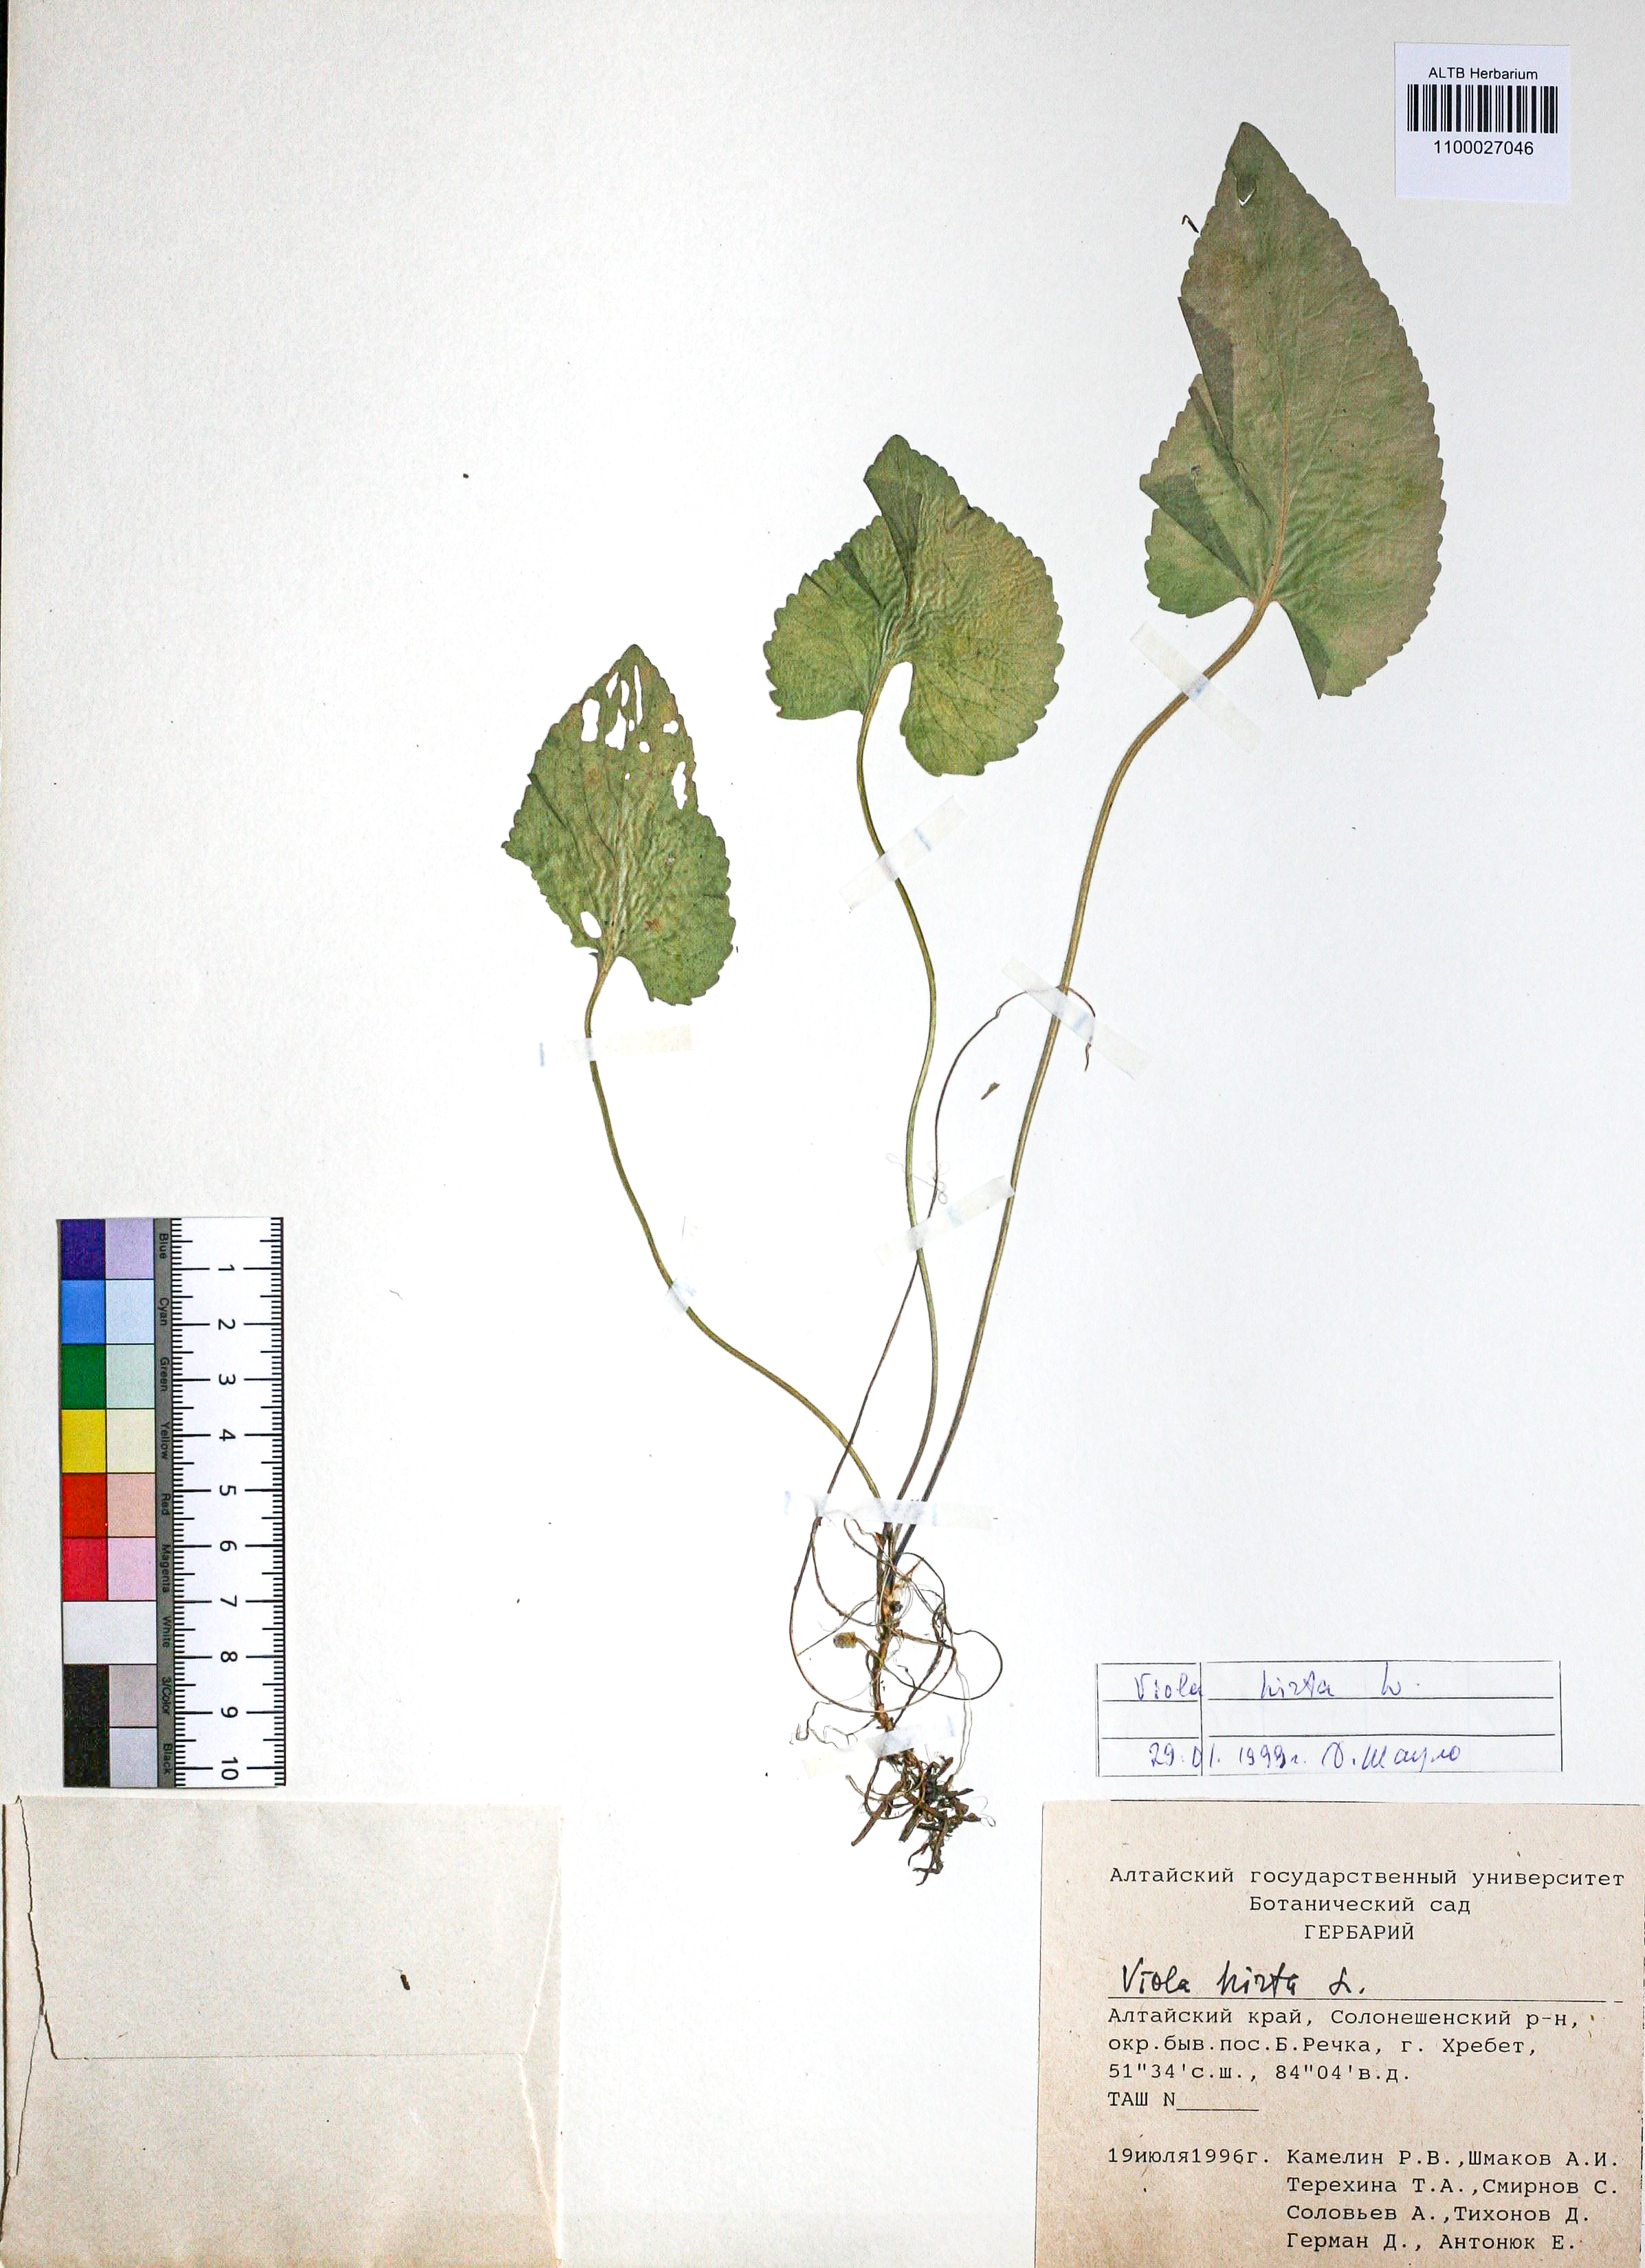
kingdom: Plantae
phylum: Tracheophyta
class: Magnoliopsida
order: Malpighiales
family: Violaceae
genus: Viola
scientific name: Viola hirta
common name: Hairy violet
